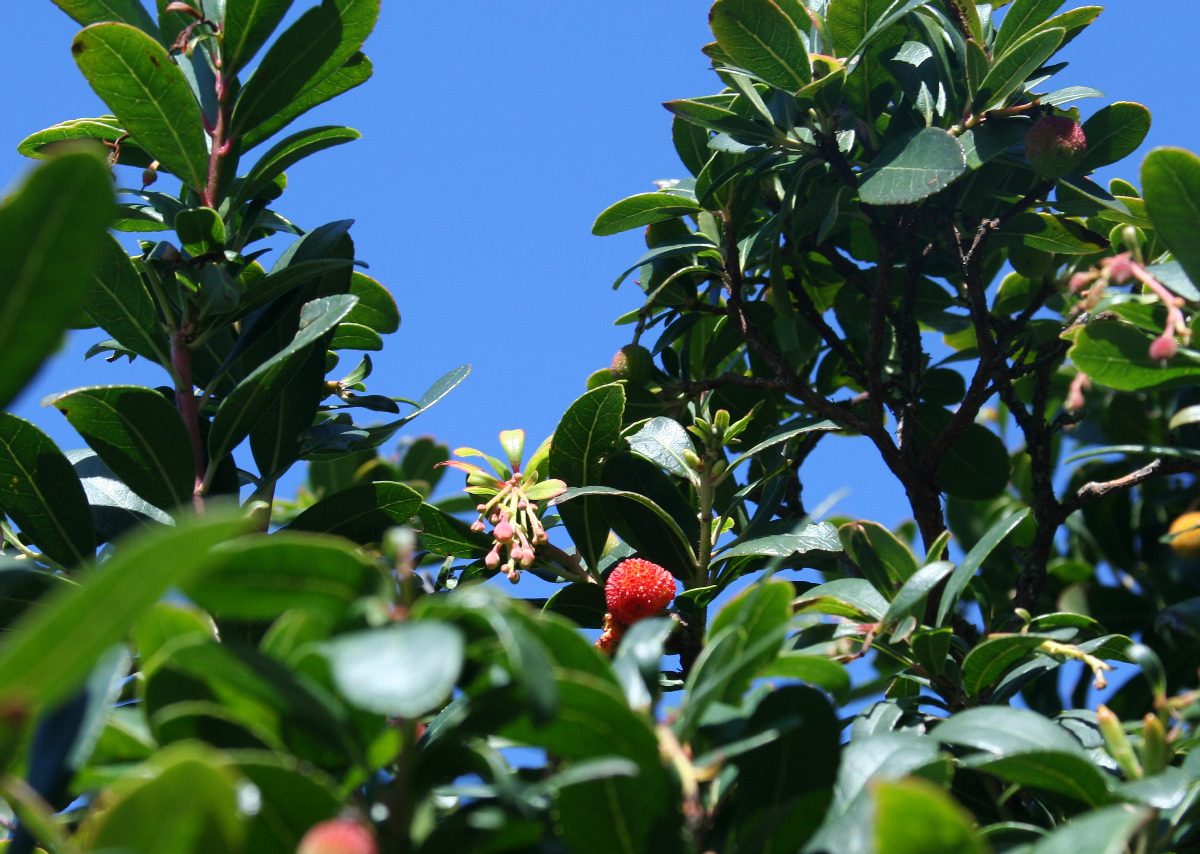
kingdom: Plantae
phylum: Tracheophyta
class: Magnoliopsida
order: Ericales
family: Ericaceae
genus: Arbutus
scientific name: Arbutus unedo
